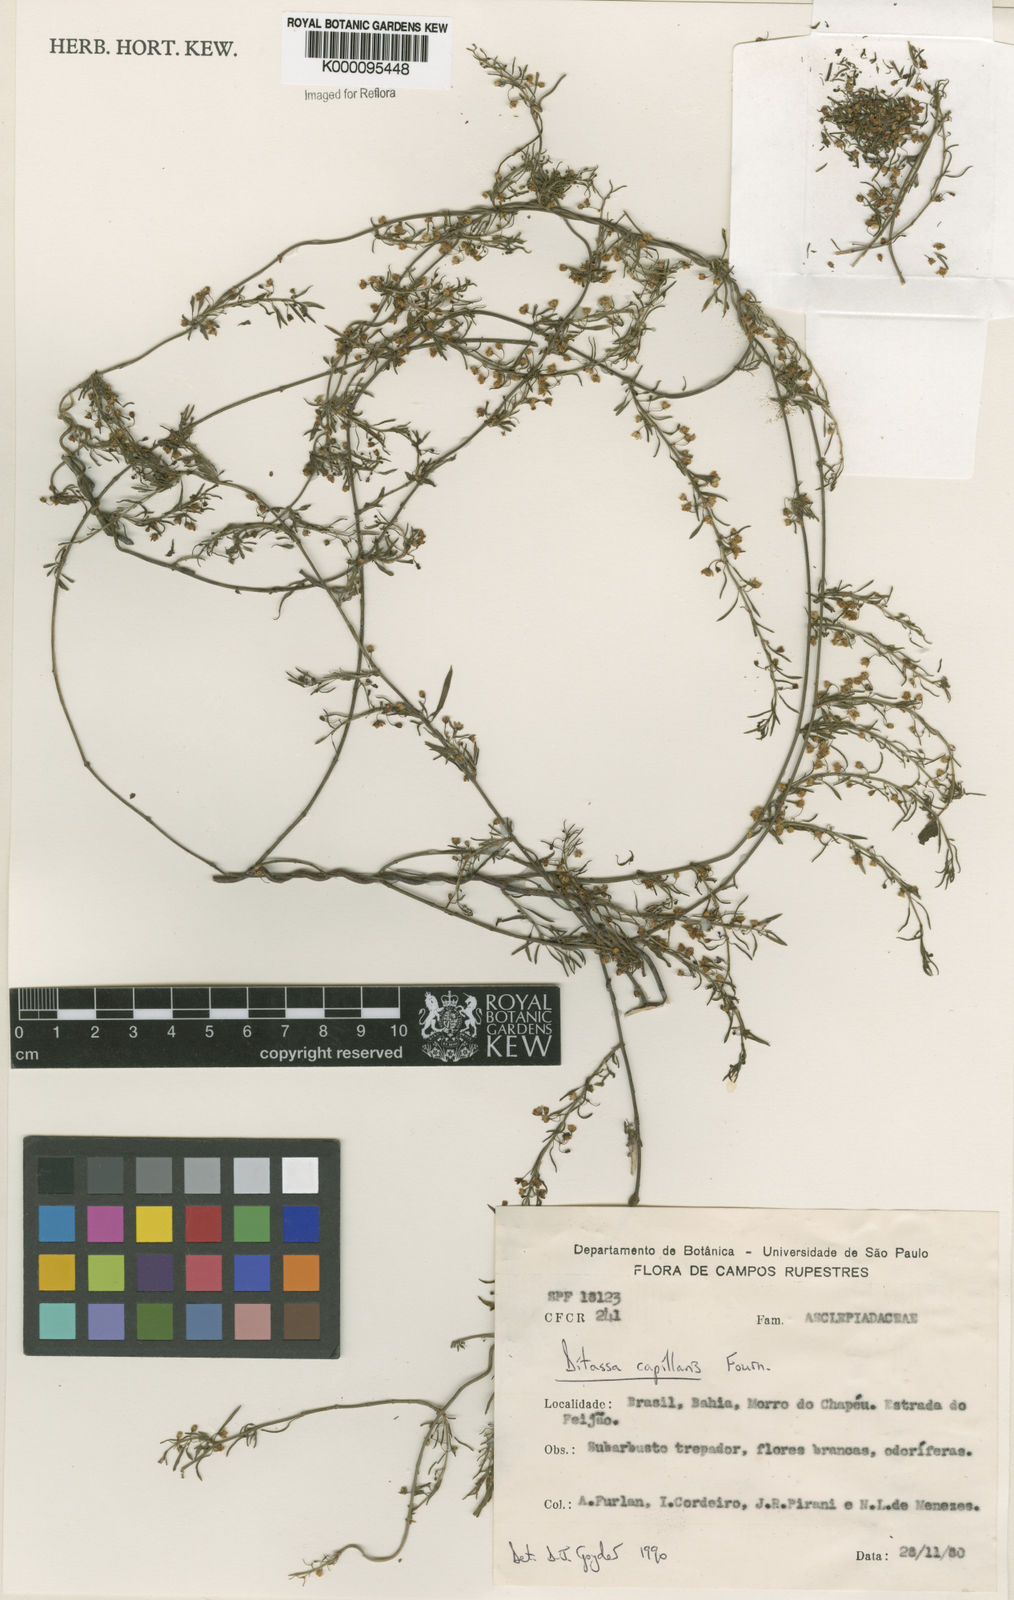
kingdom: Plantae
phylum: Tracheophyta
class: Magnoliopsida
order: Gentianales
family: Apocynaceae
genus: Ditassa
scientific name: Ditassa capillaris
